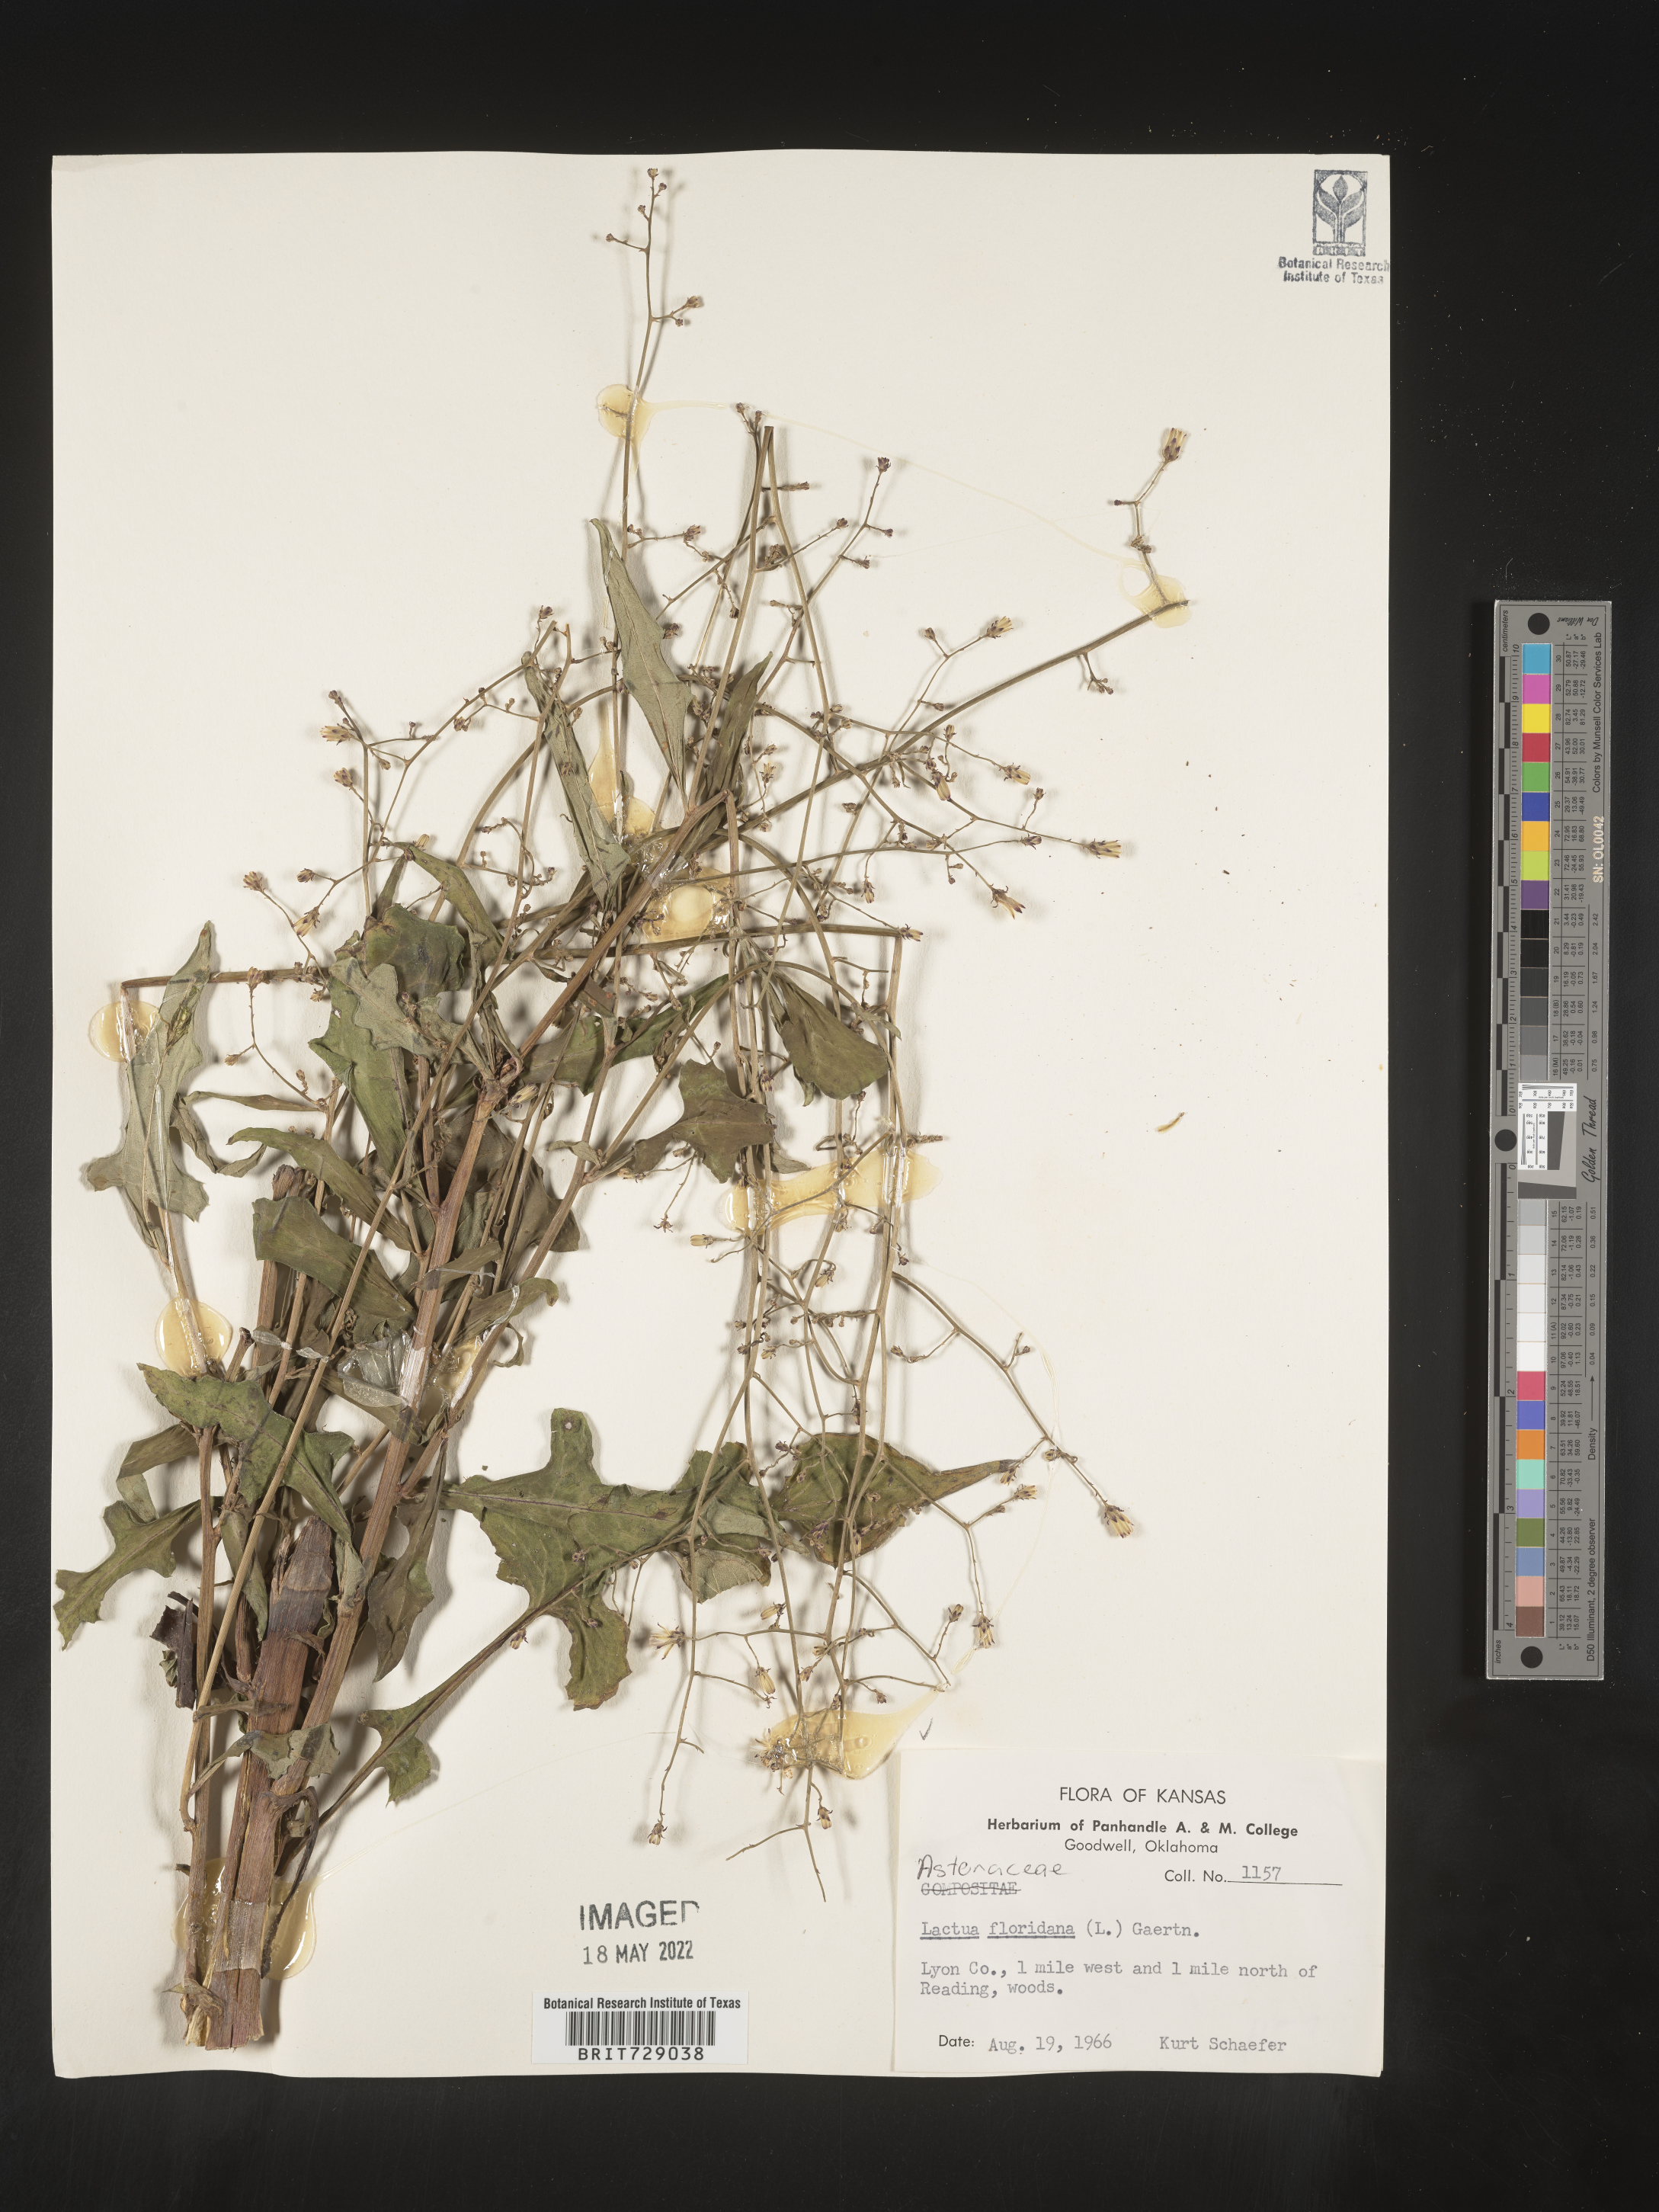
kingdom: Plantae
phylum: Tracheophyta
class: Magnoliopsida
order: Asterales
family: Asteraceae
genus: Lactuca
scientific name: Lactuca floridana
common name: Woodland lettuce
